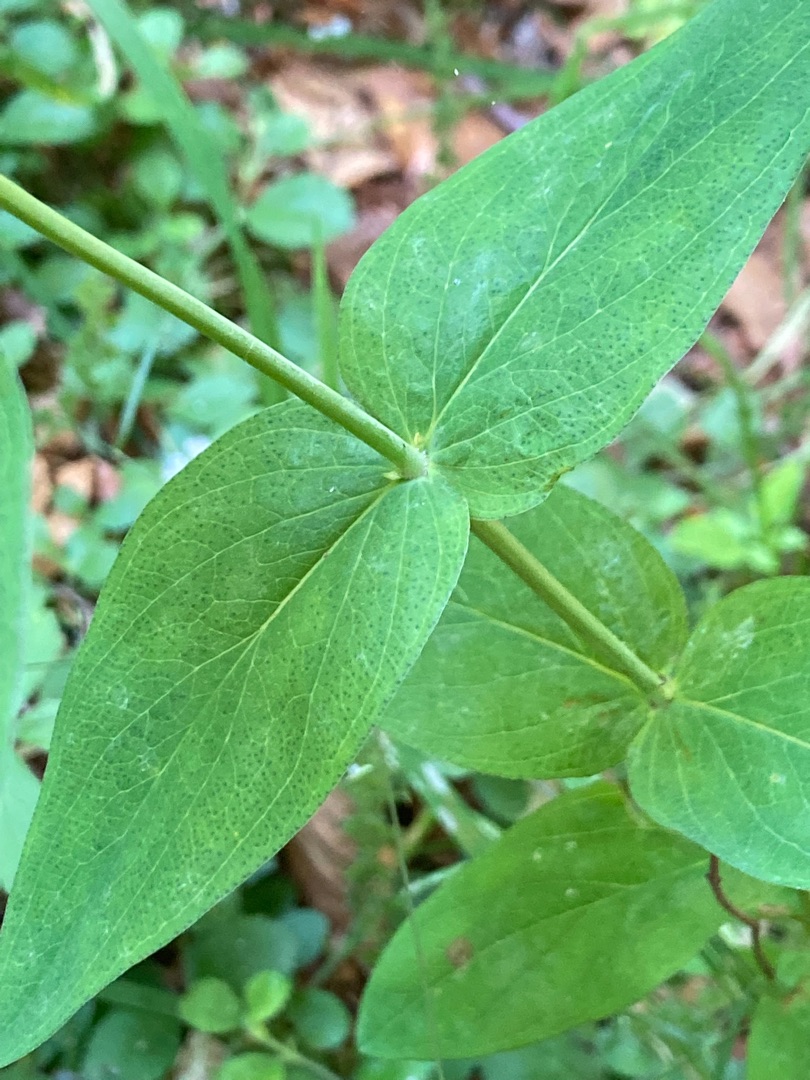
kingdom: Plantae
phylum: Tracheophyta
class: Magnoliopsida
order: Malpighiales
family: Hypericaceae
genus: Hypericum
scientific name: Hypericum montanum
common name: Bjerg-perikon
